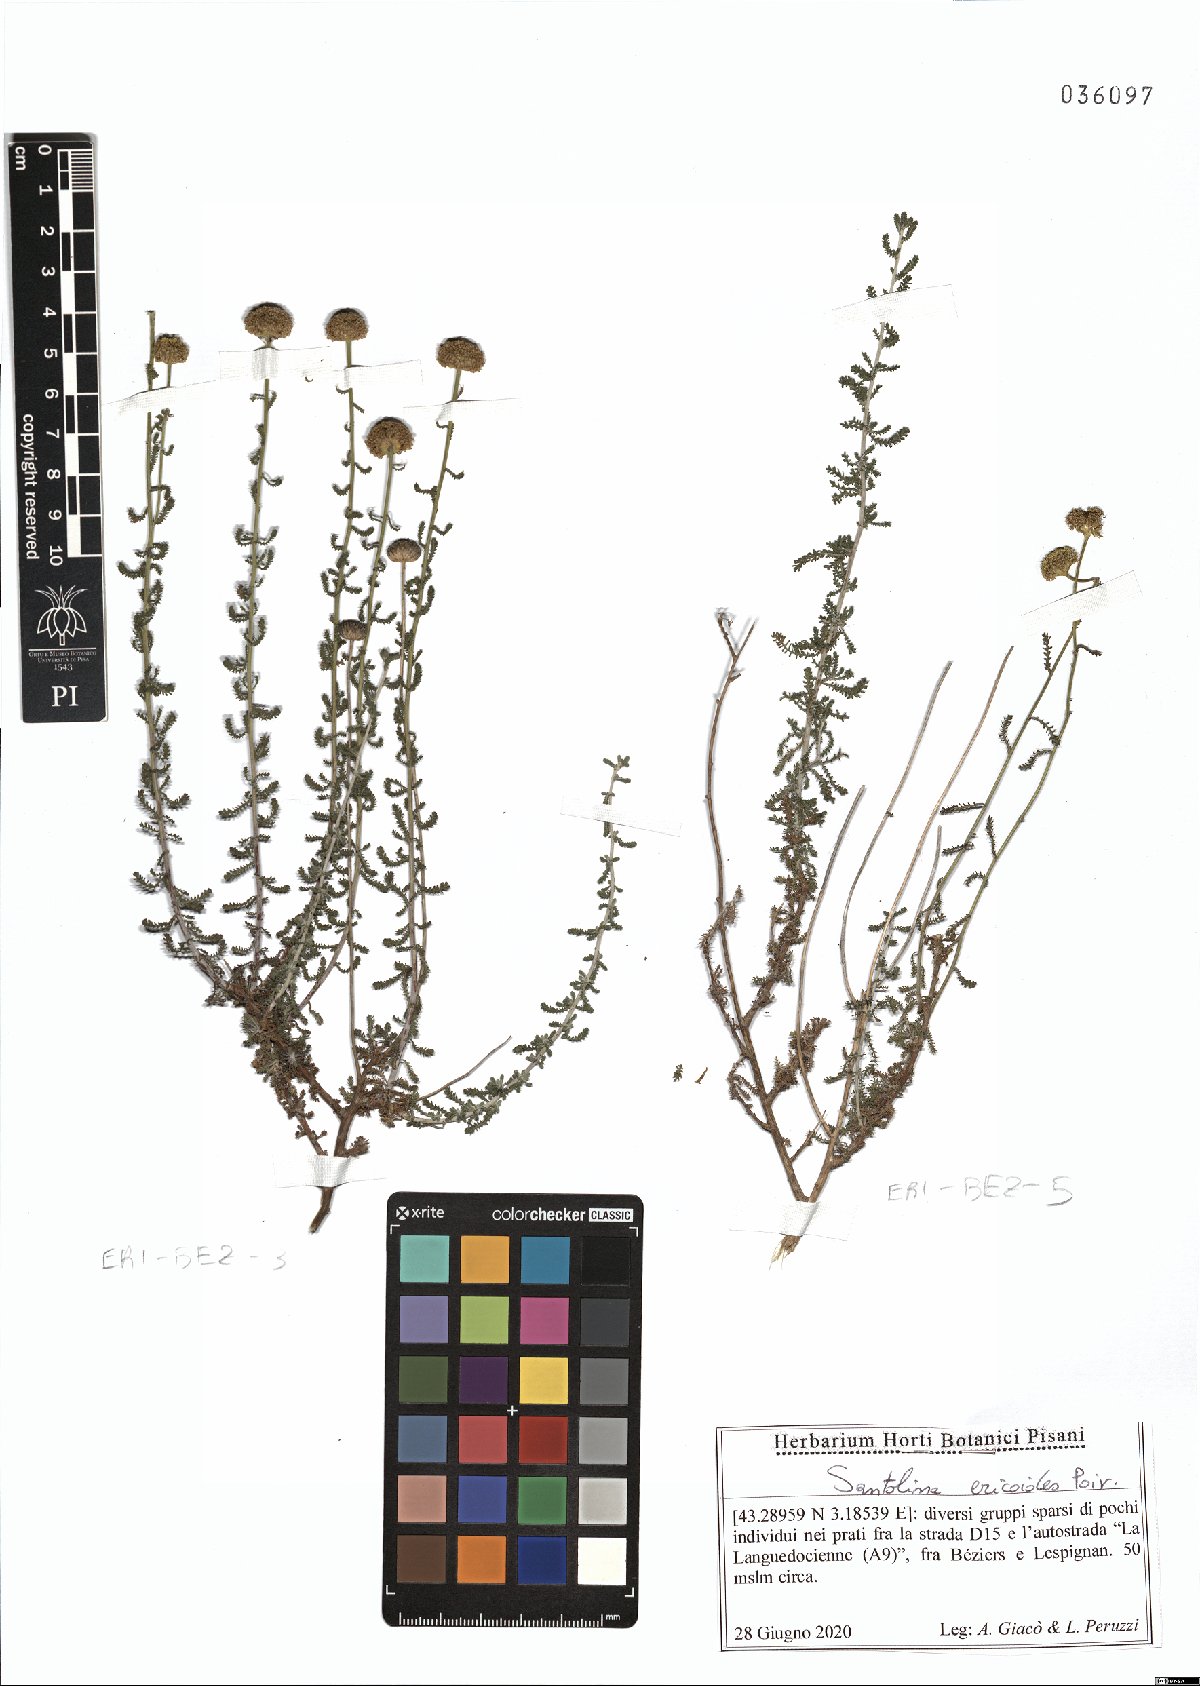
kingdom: Plantae
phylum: Tracheophyta
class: Magnoliopsida
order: Asterales
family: Asteraceae
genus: Santolina
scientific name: Santolina ericoides
